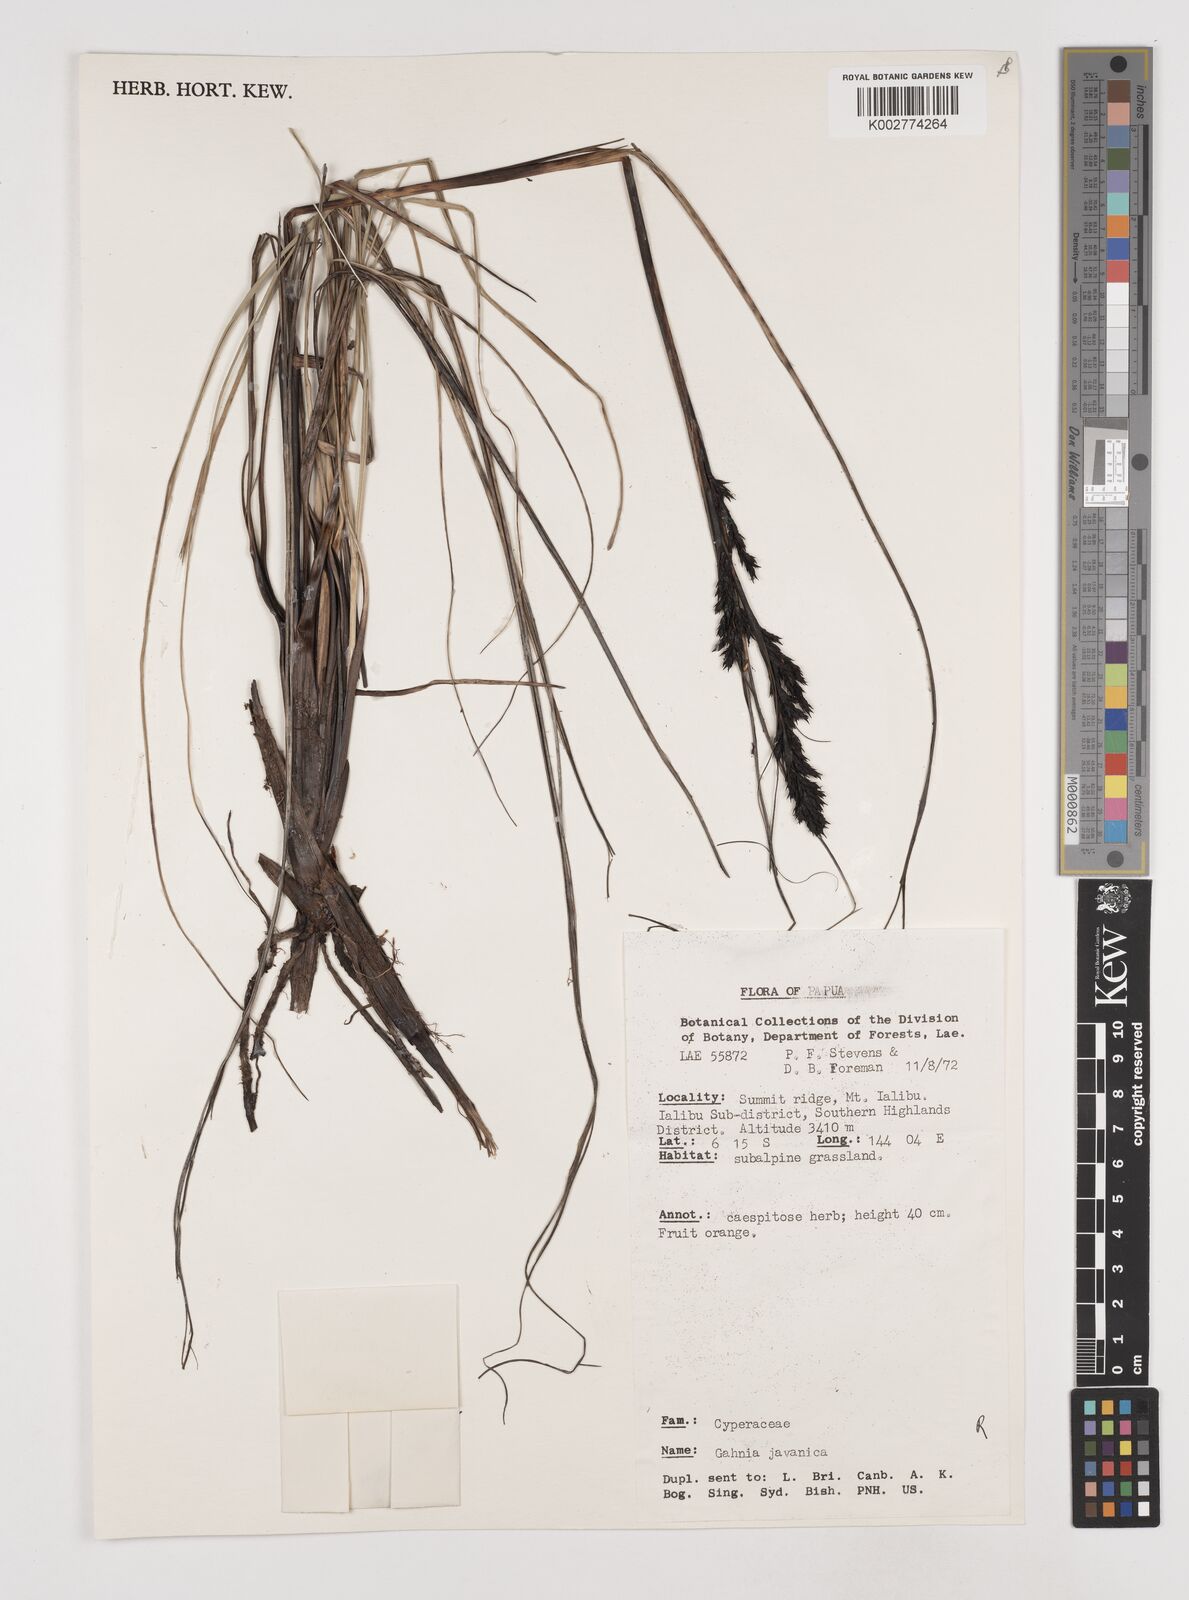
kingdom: Plantae
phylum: Tracheophyta
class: Liliopsida
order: Poales
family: Cyperaceae
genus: Gahnia
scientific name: Gahnia javanica
